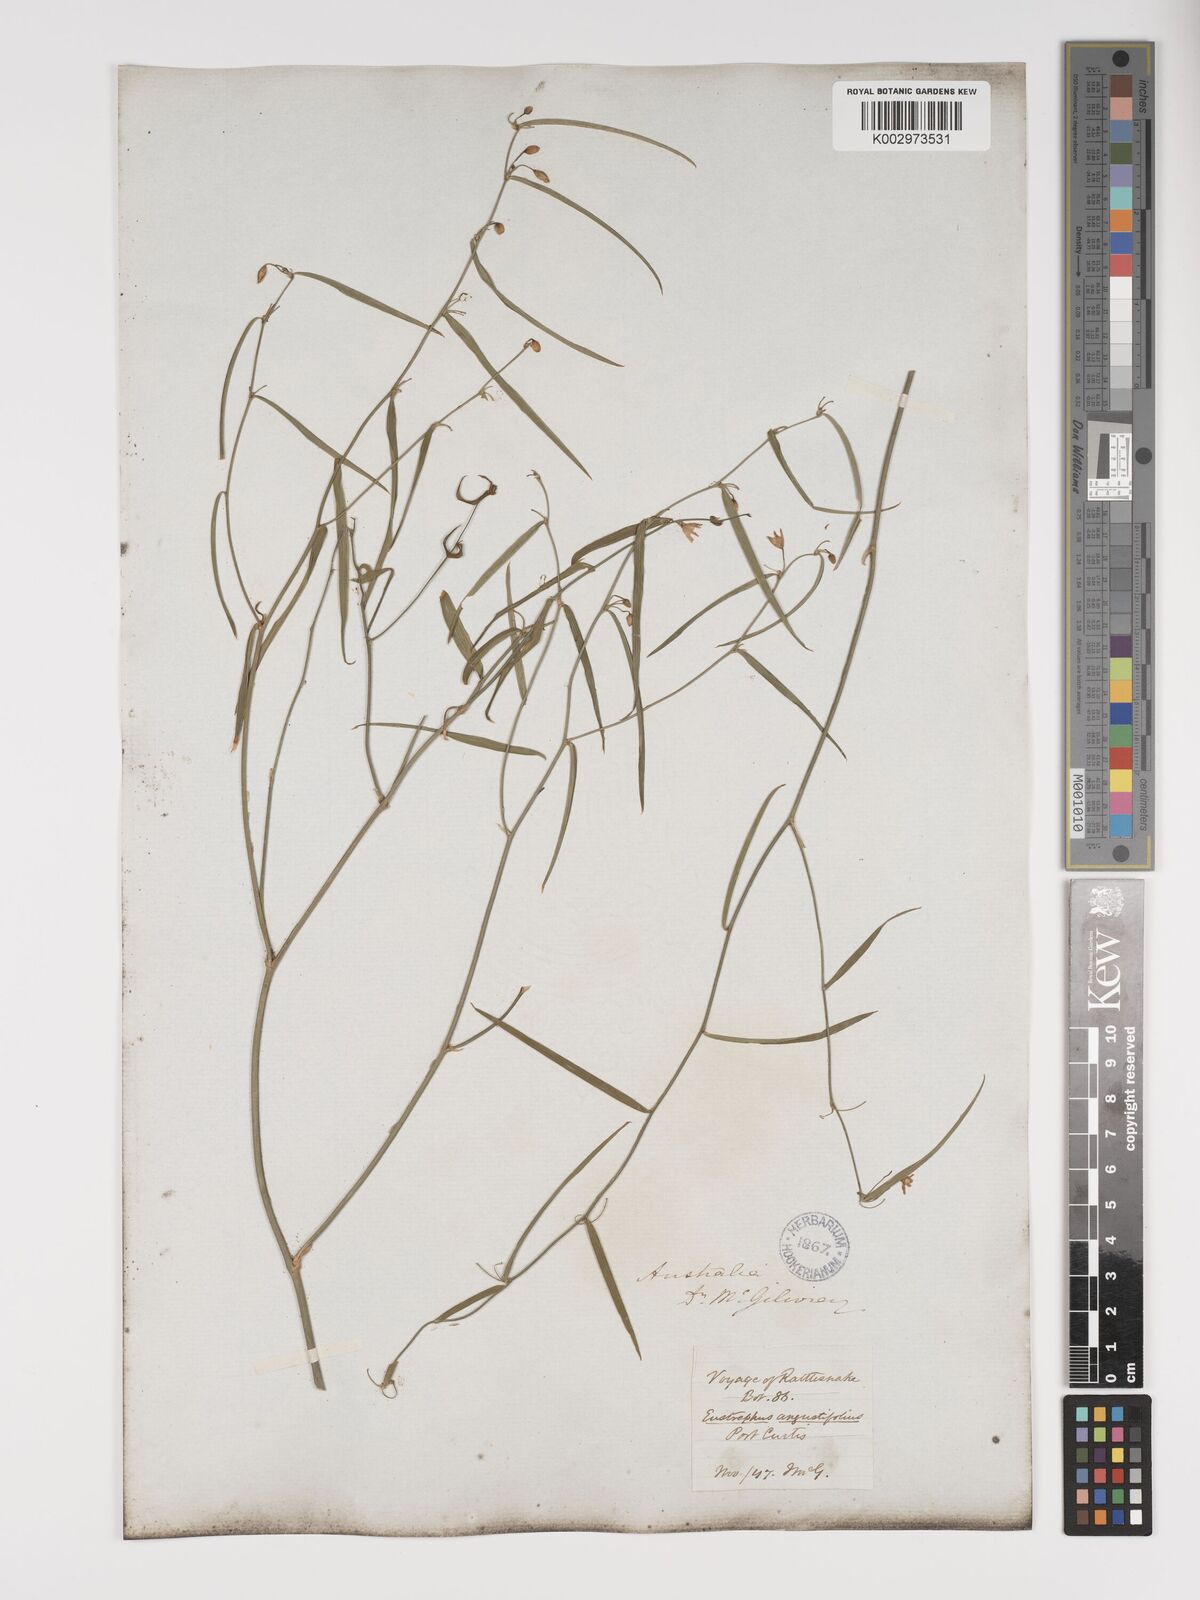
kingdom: Plantae
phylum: Tracheophyta
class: Liliopsida
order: Asparagales
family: Asparagaceae
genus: Eustrephus
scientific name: Eustrephus latifolius
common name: Orangevine
